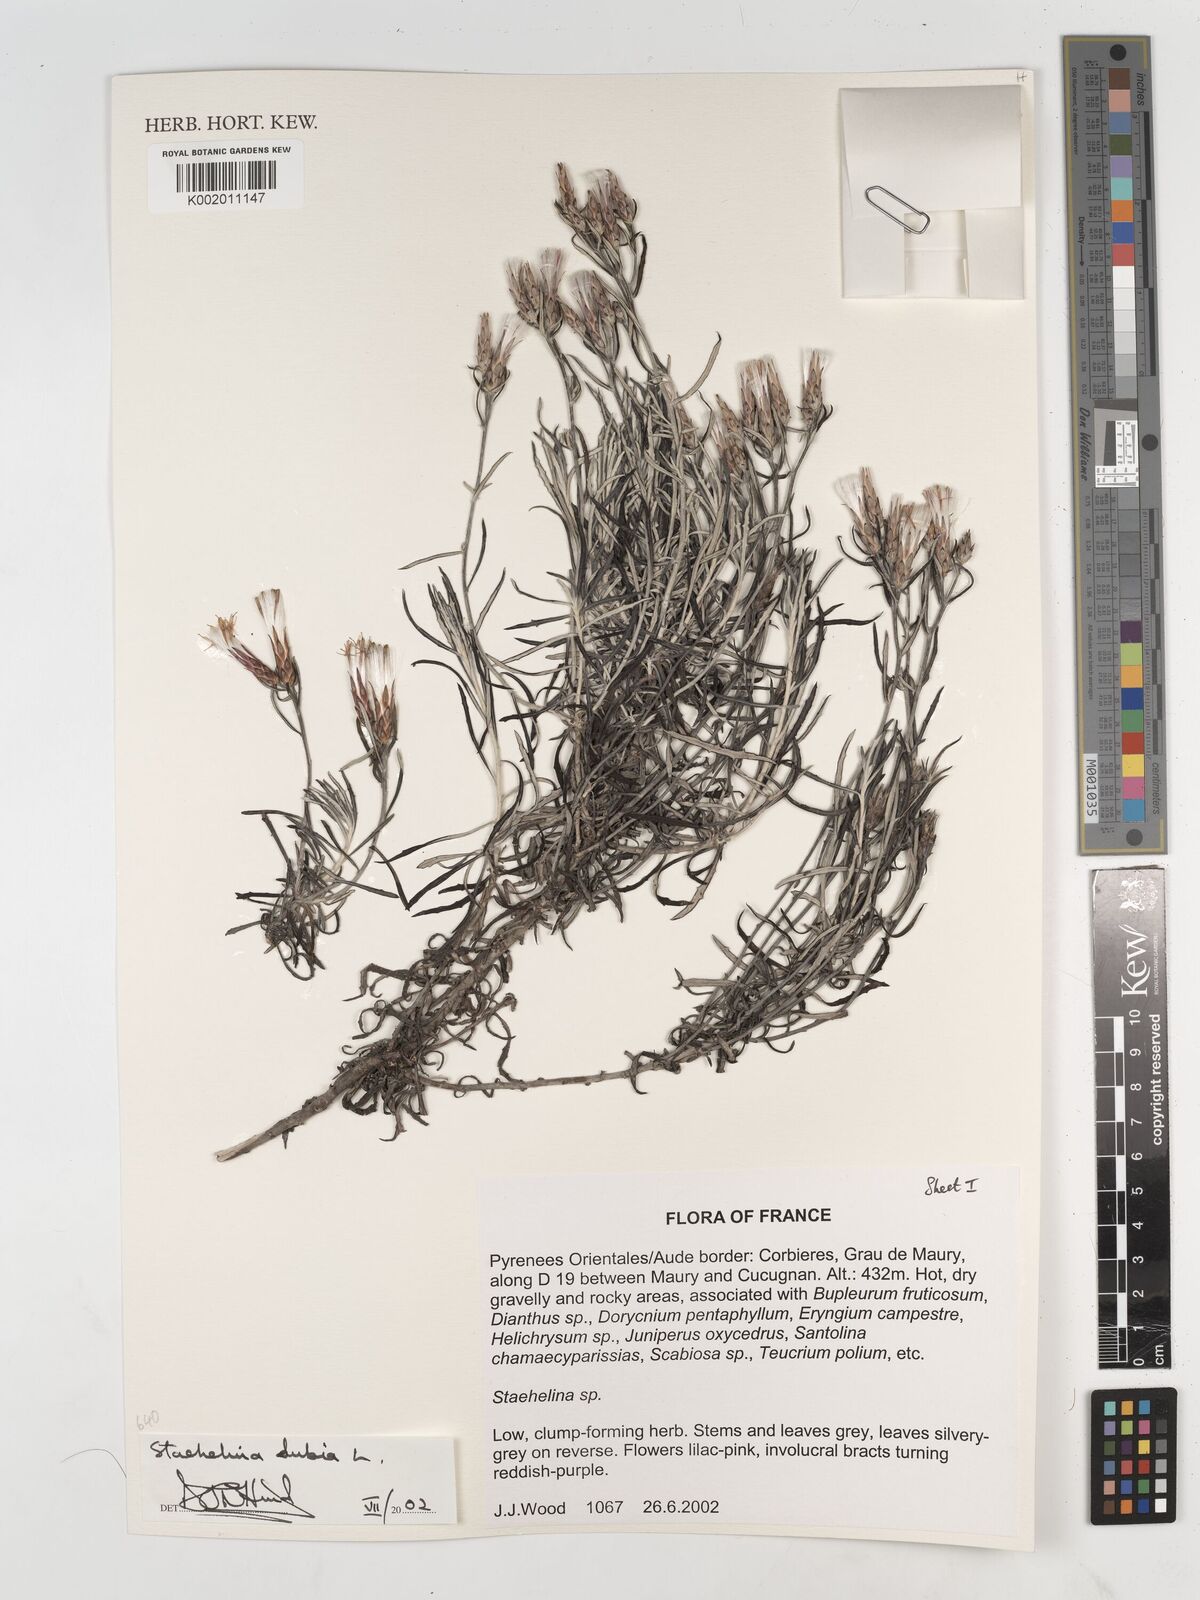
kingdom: Plantae
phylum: Tracheophyta
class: Magnoliopsida
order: Asterales
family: Asteraceae
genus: Staehelina
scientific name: Staehelina dubia
